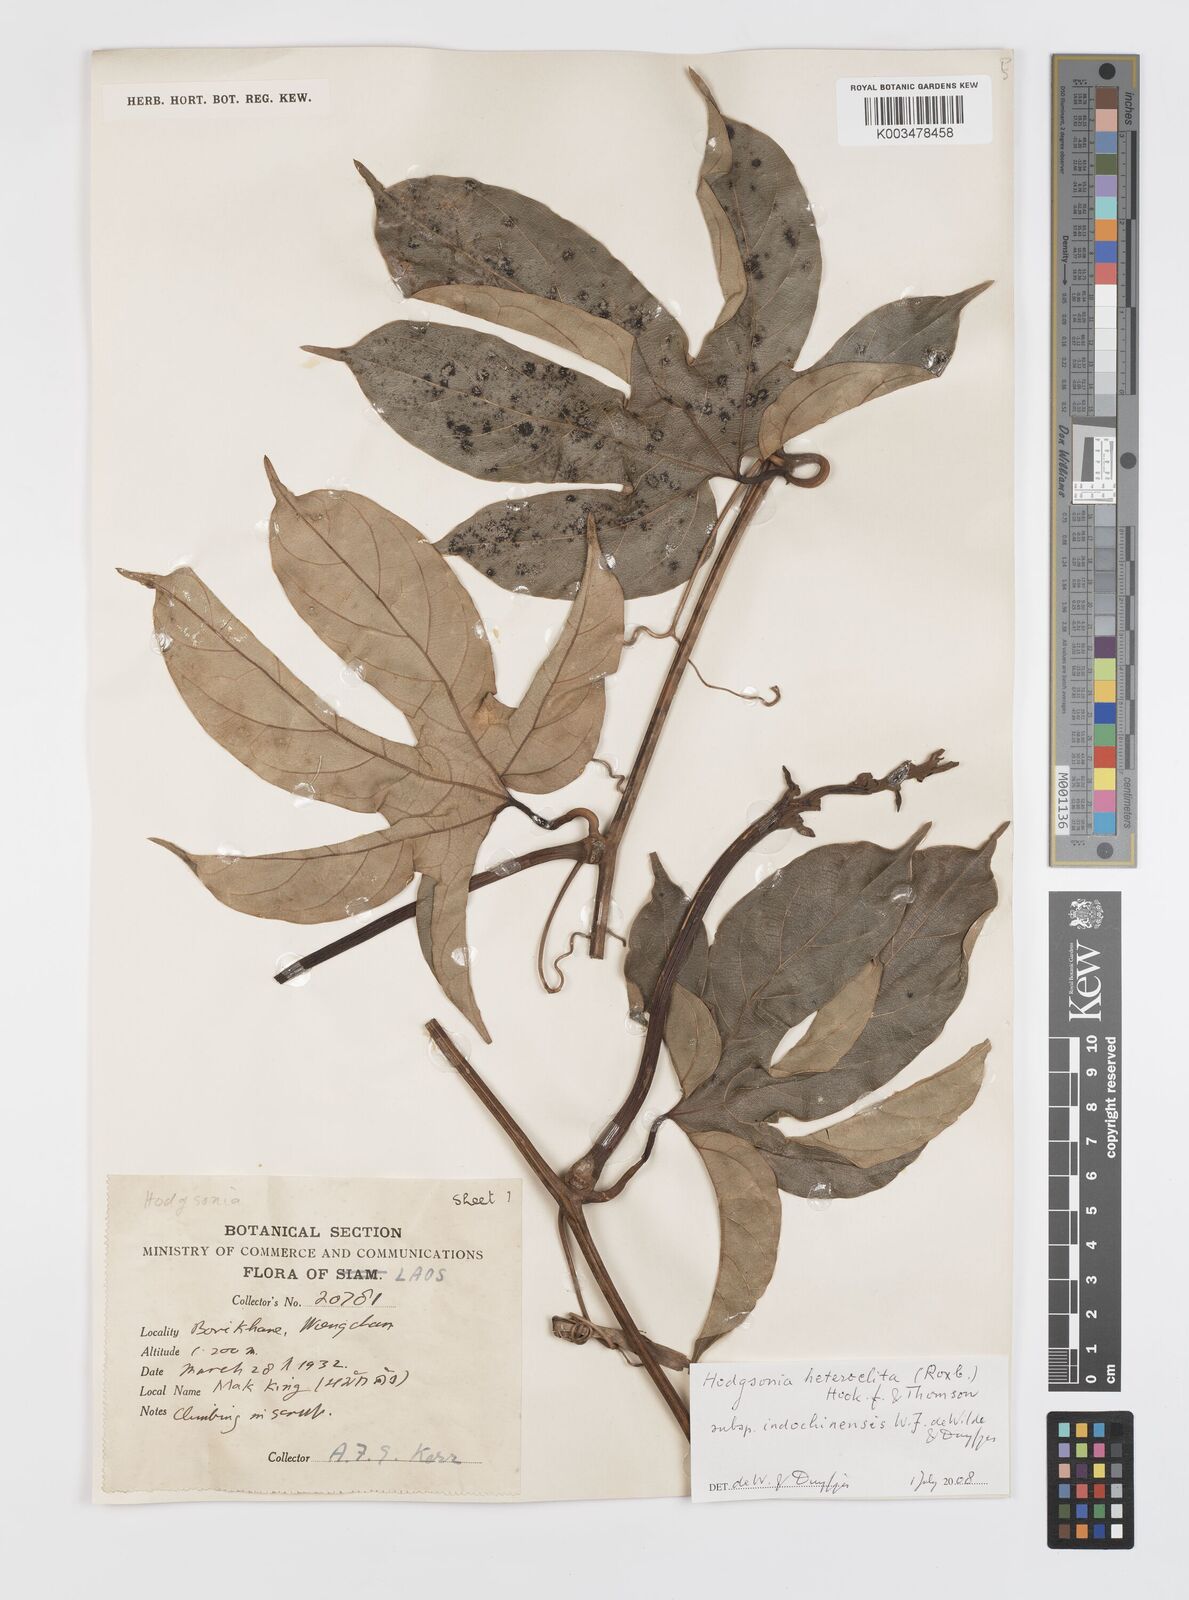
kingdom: Plantae
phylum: Tracheophyta
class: Magnoliopsida
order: Cucurbitales
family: Cucurbitaceae
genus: Hodgsonia
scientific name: Hodgsonia macrocarpa
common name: Chinese lardfruit
